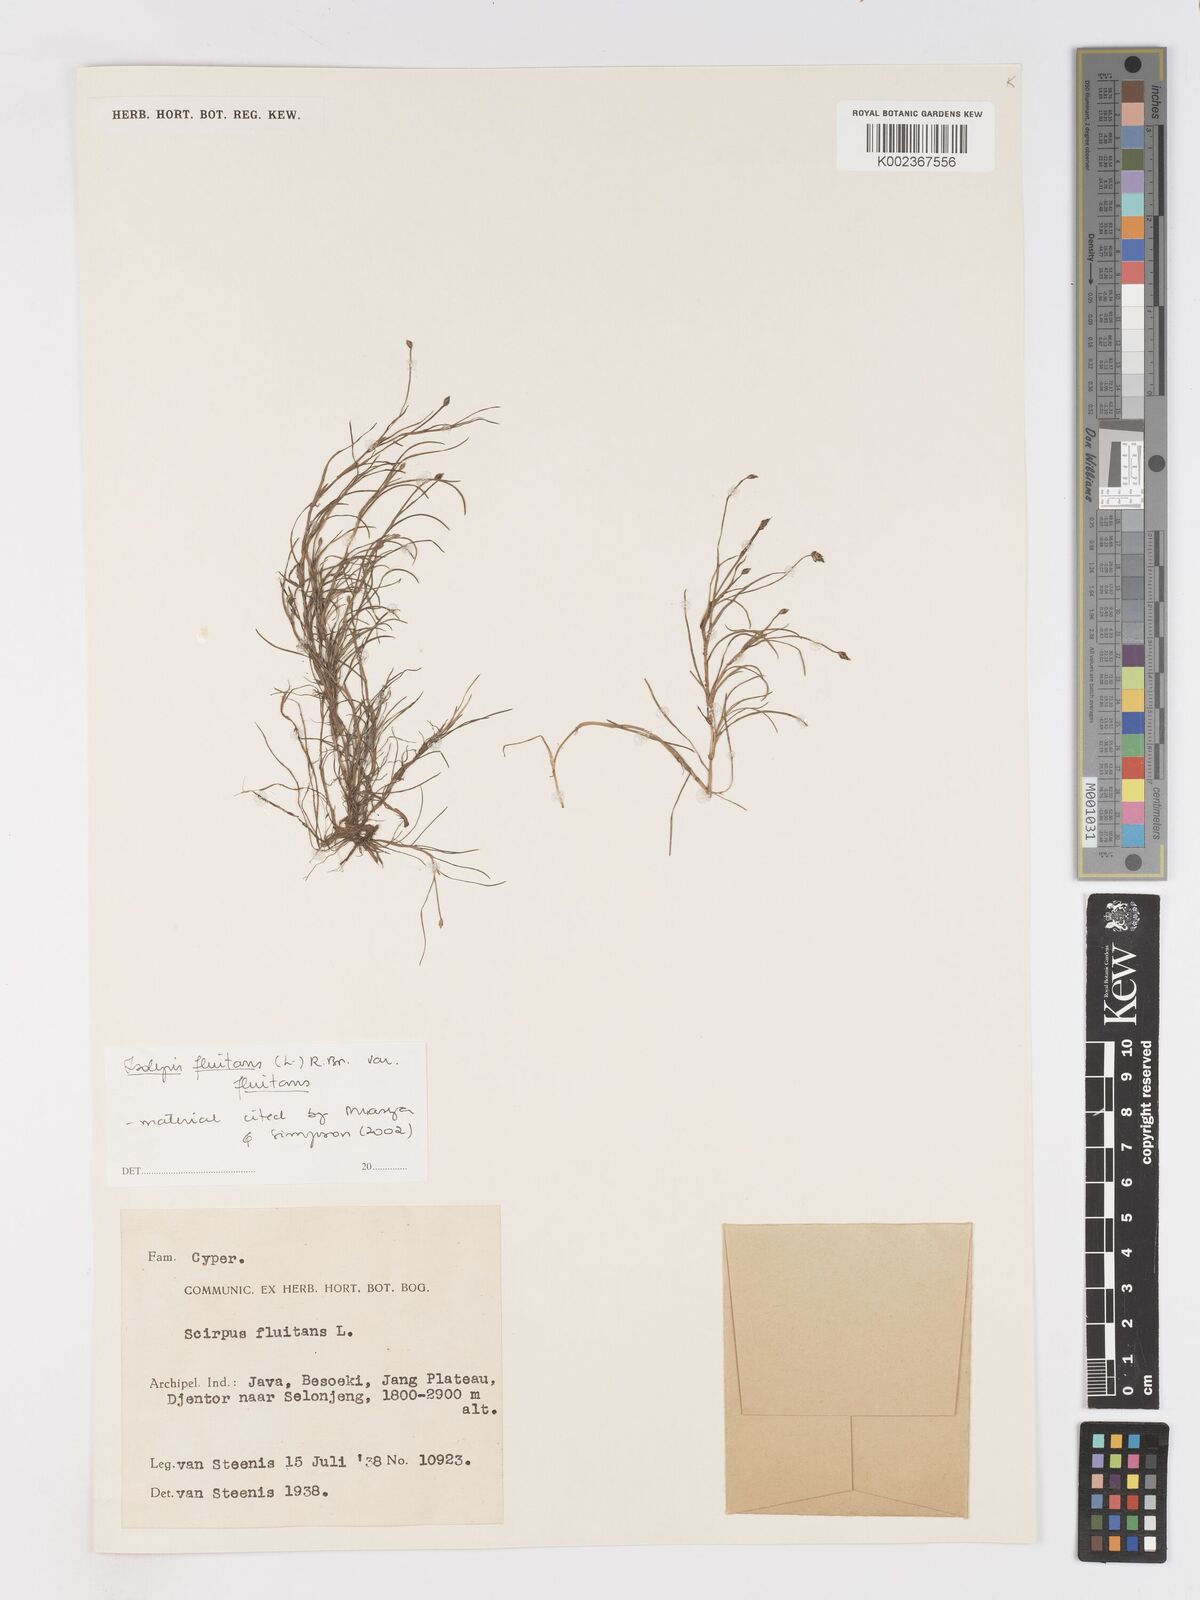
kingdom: Plantae
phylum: Tracheophyta
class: Liliopsida
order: Poales
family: Cyperaceae
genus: Isolepis
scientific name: Isolepis fluitans
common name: Floating club-rush
